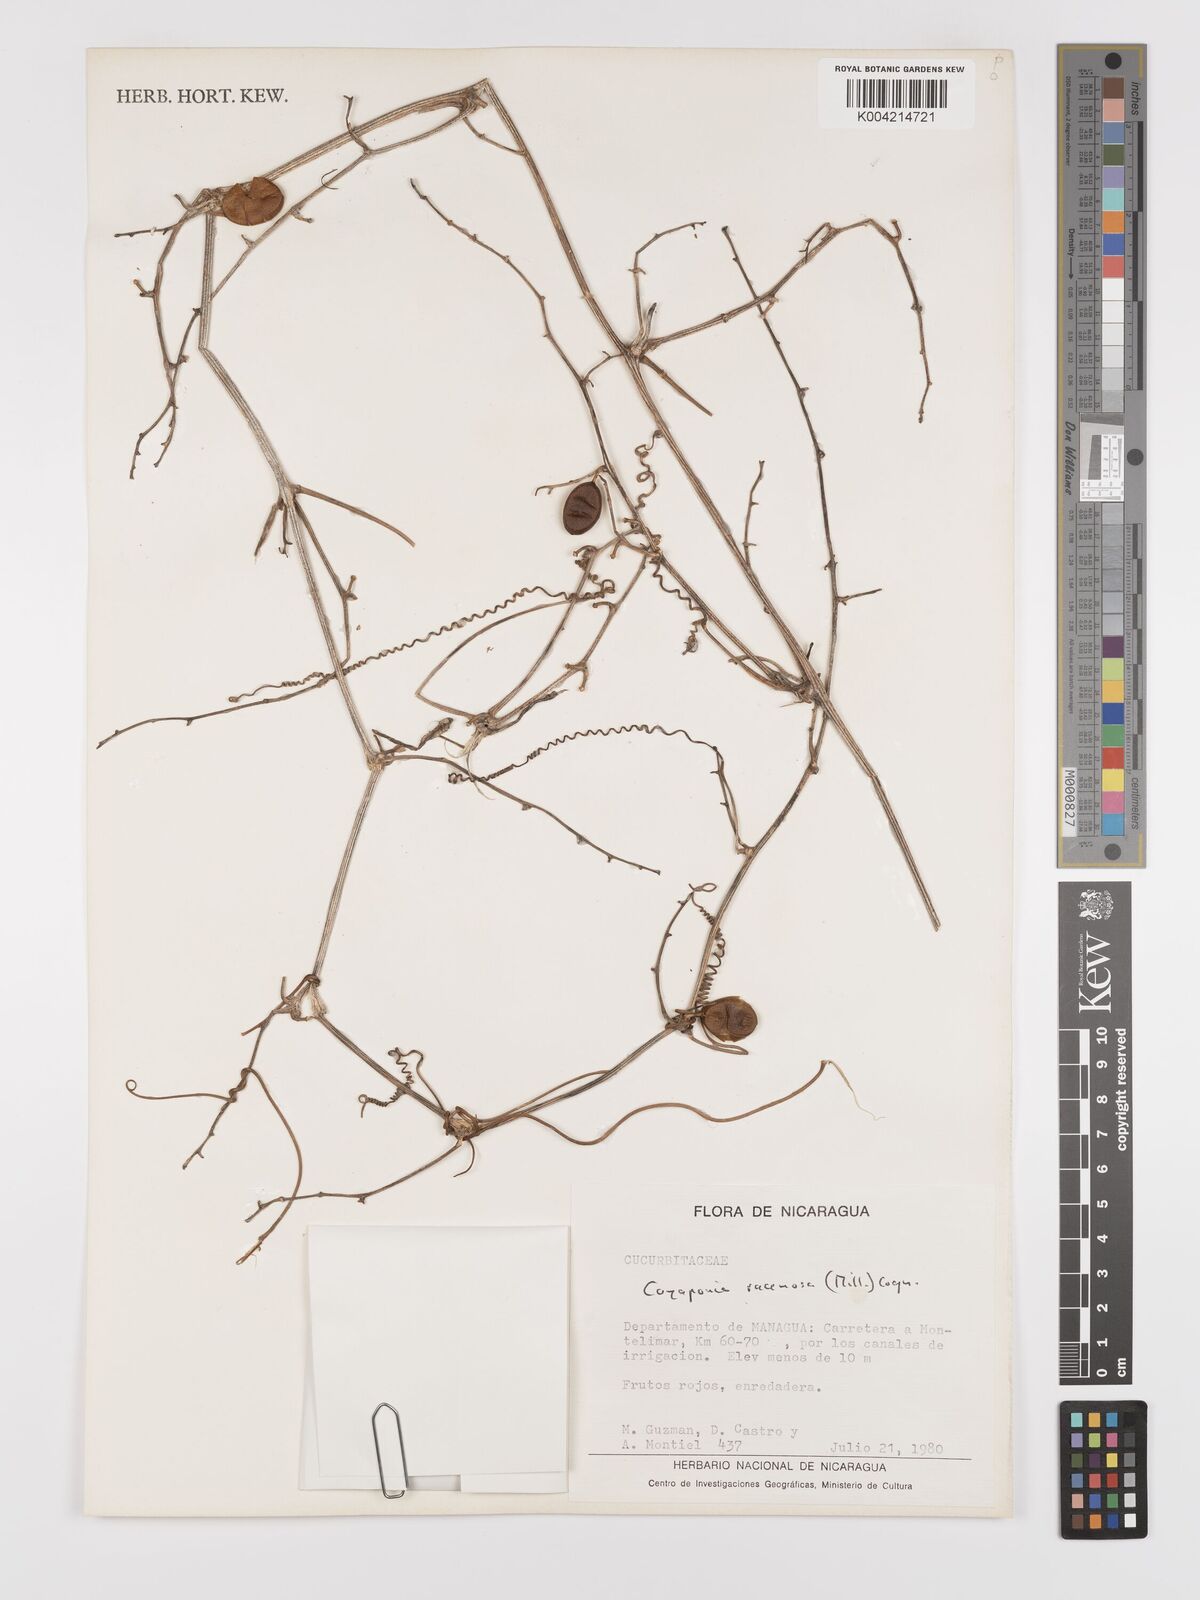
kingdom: Plantae
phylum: Tracheophyta
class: Magnoliopsida
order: Cucurbitales
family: Cucurbitaceae
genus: Cayaponia
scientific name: Cayaponia racemosa
